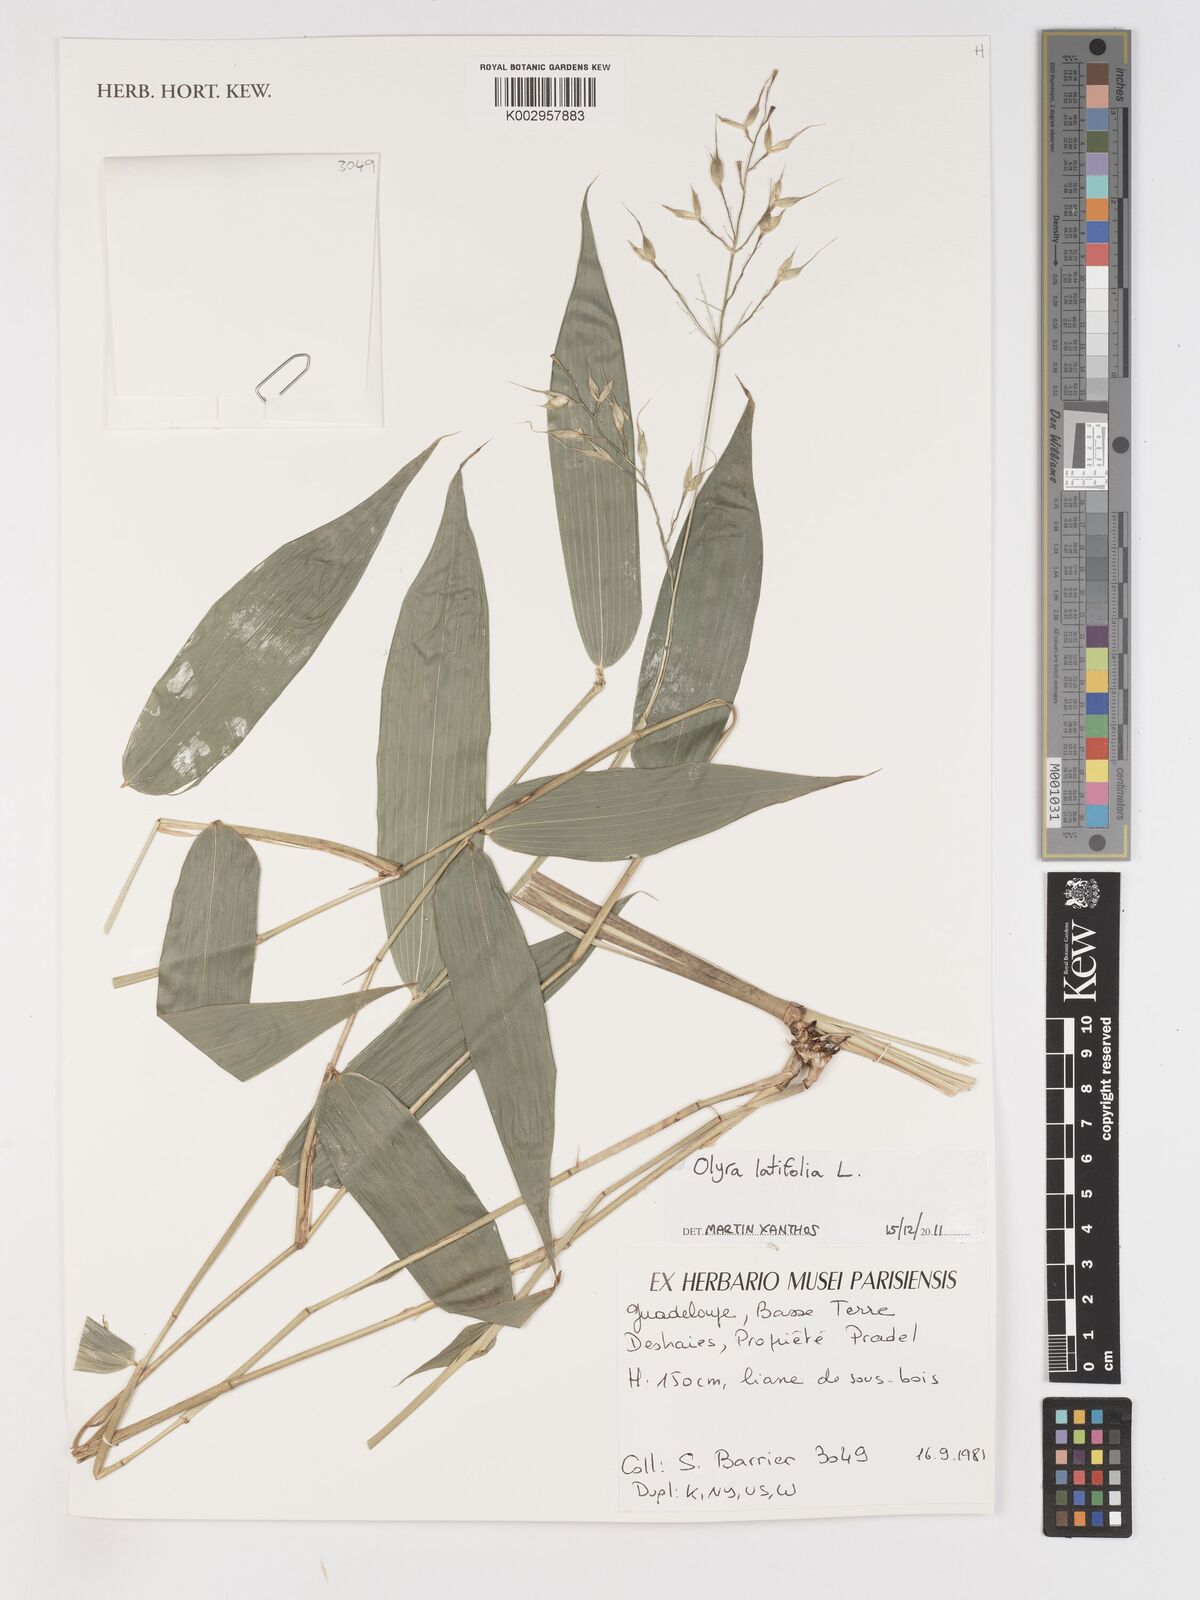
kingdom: Plantae
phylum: Tracheophyta
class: Liliopsida
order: Poales
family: Poaceae
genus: Olyra
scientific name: Olyra latifolia
